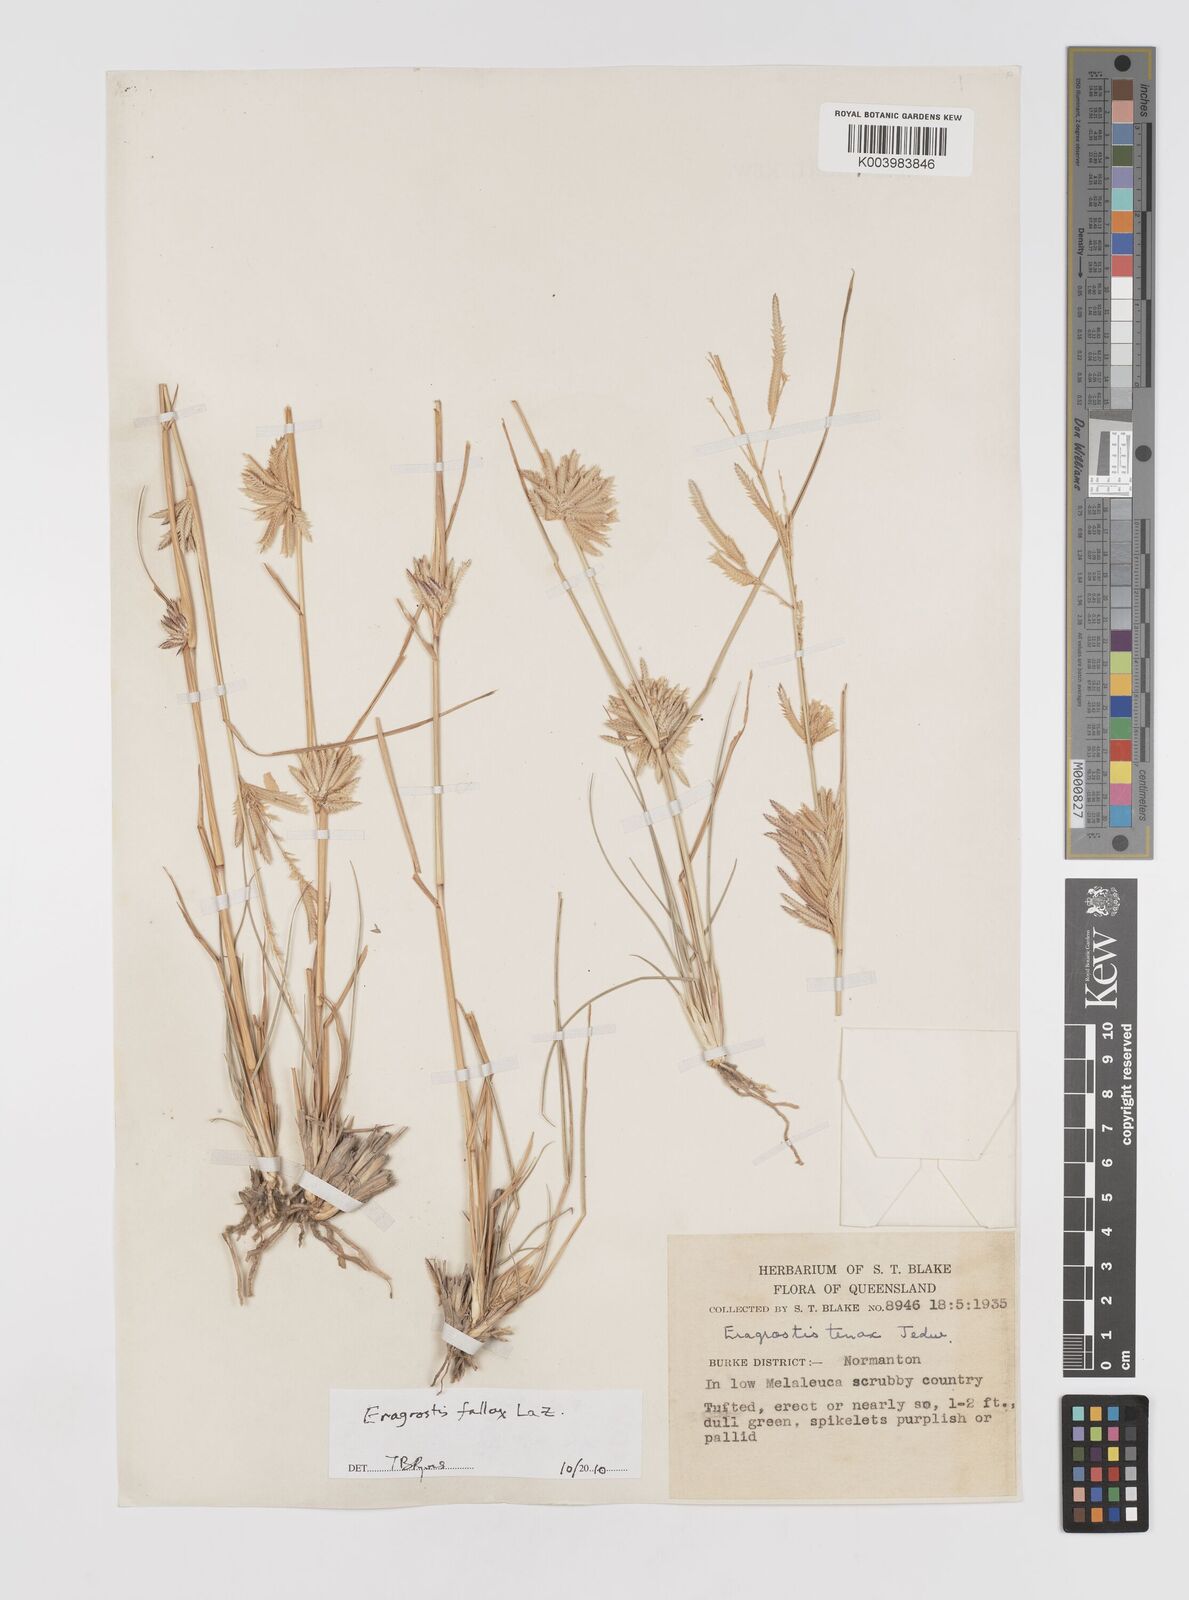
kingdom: Plantae
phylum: Tracheophyta
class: Liliopsida
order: Poales
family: Poaceae
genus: Eragrostis
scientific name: Eragrostis fallax
